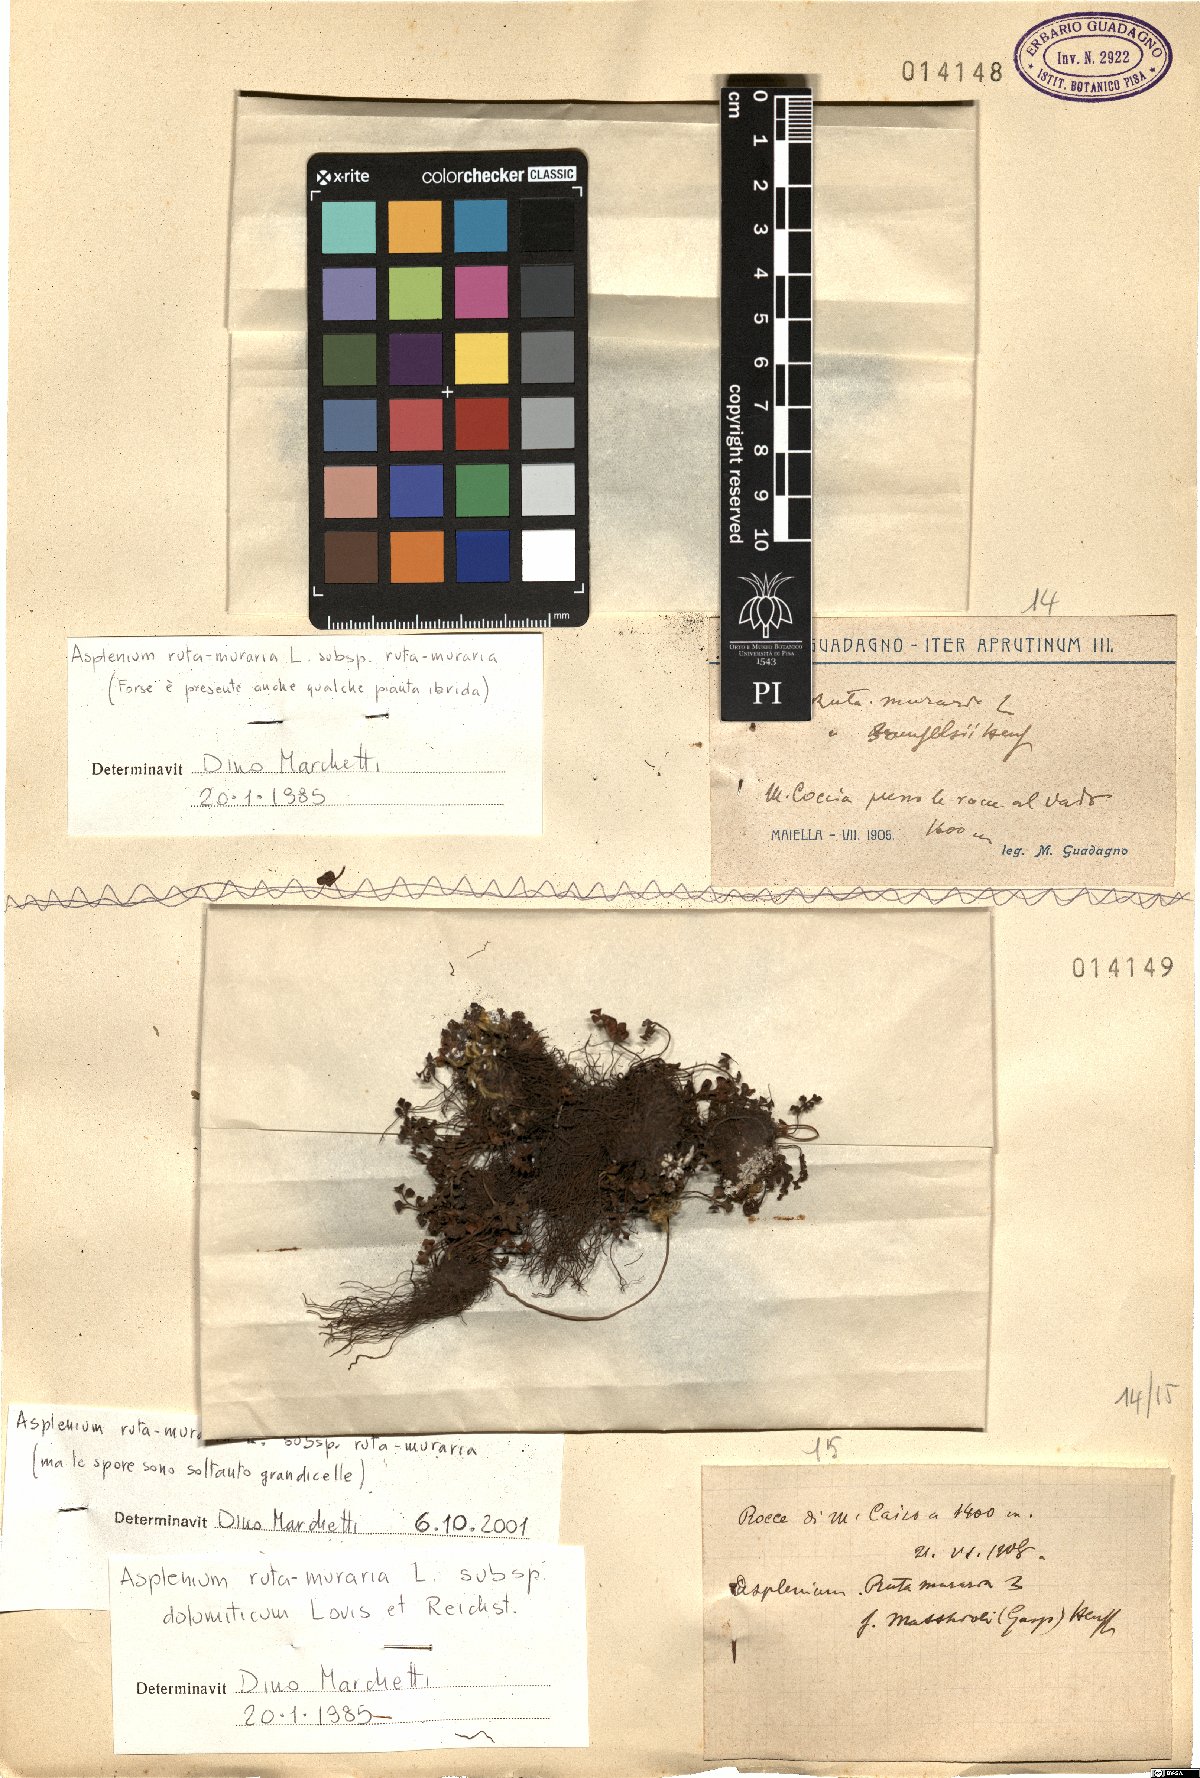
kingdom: Plantae
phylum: Tracheophyta
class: Polypodiopsida
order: Polypodiales
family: Aspleniaceae
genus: Asplenium
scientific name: Asplenium ruta-muraria
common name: Wall-rue
